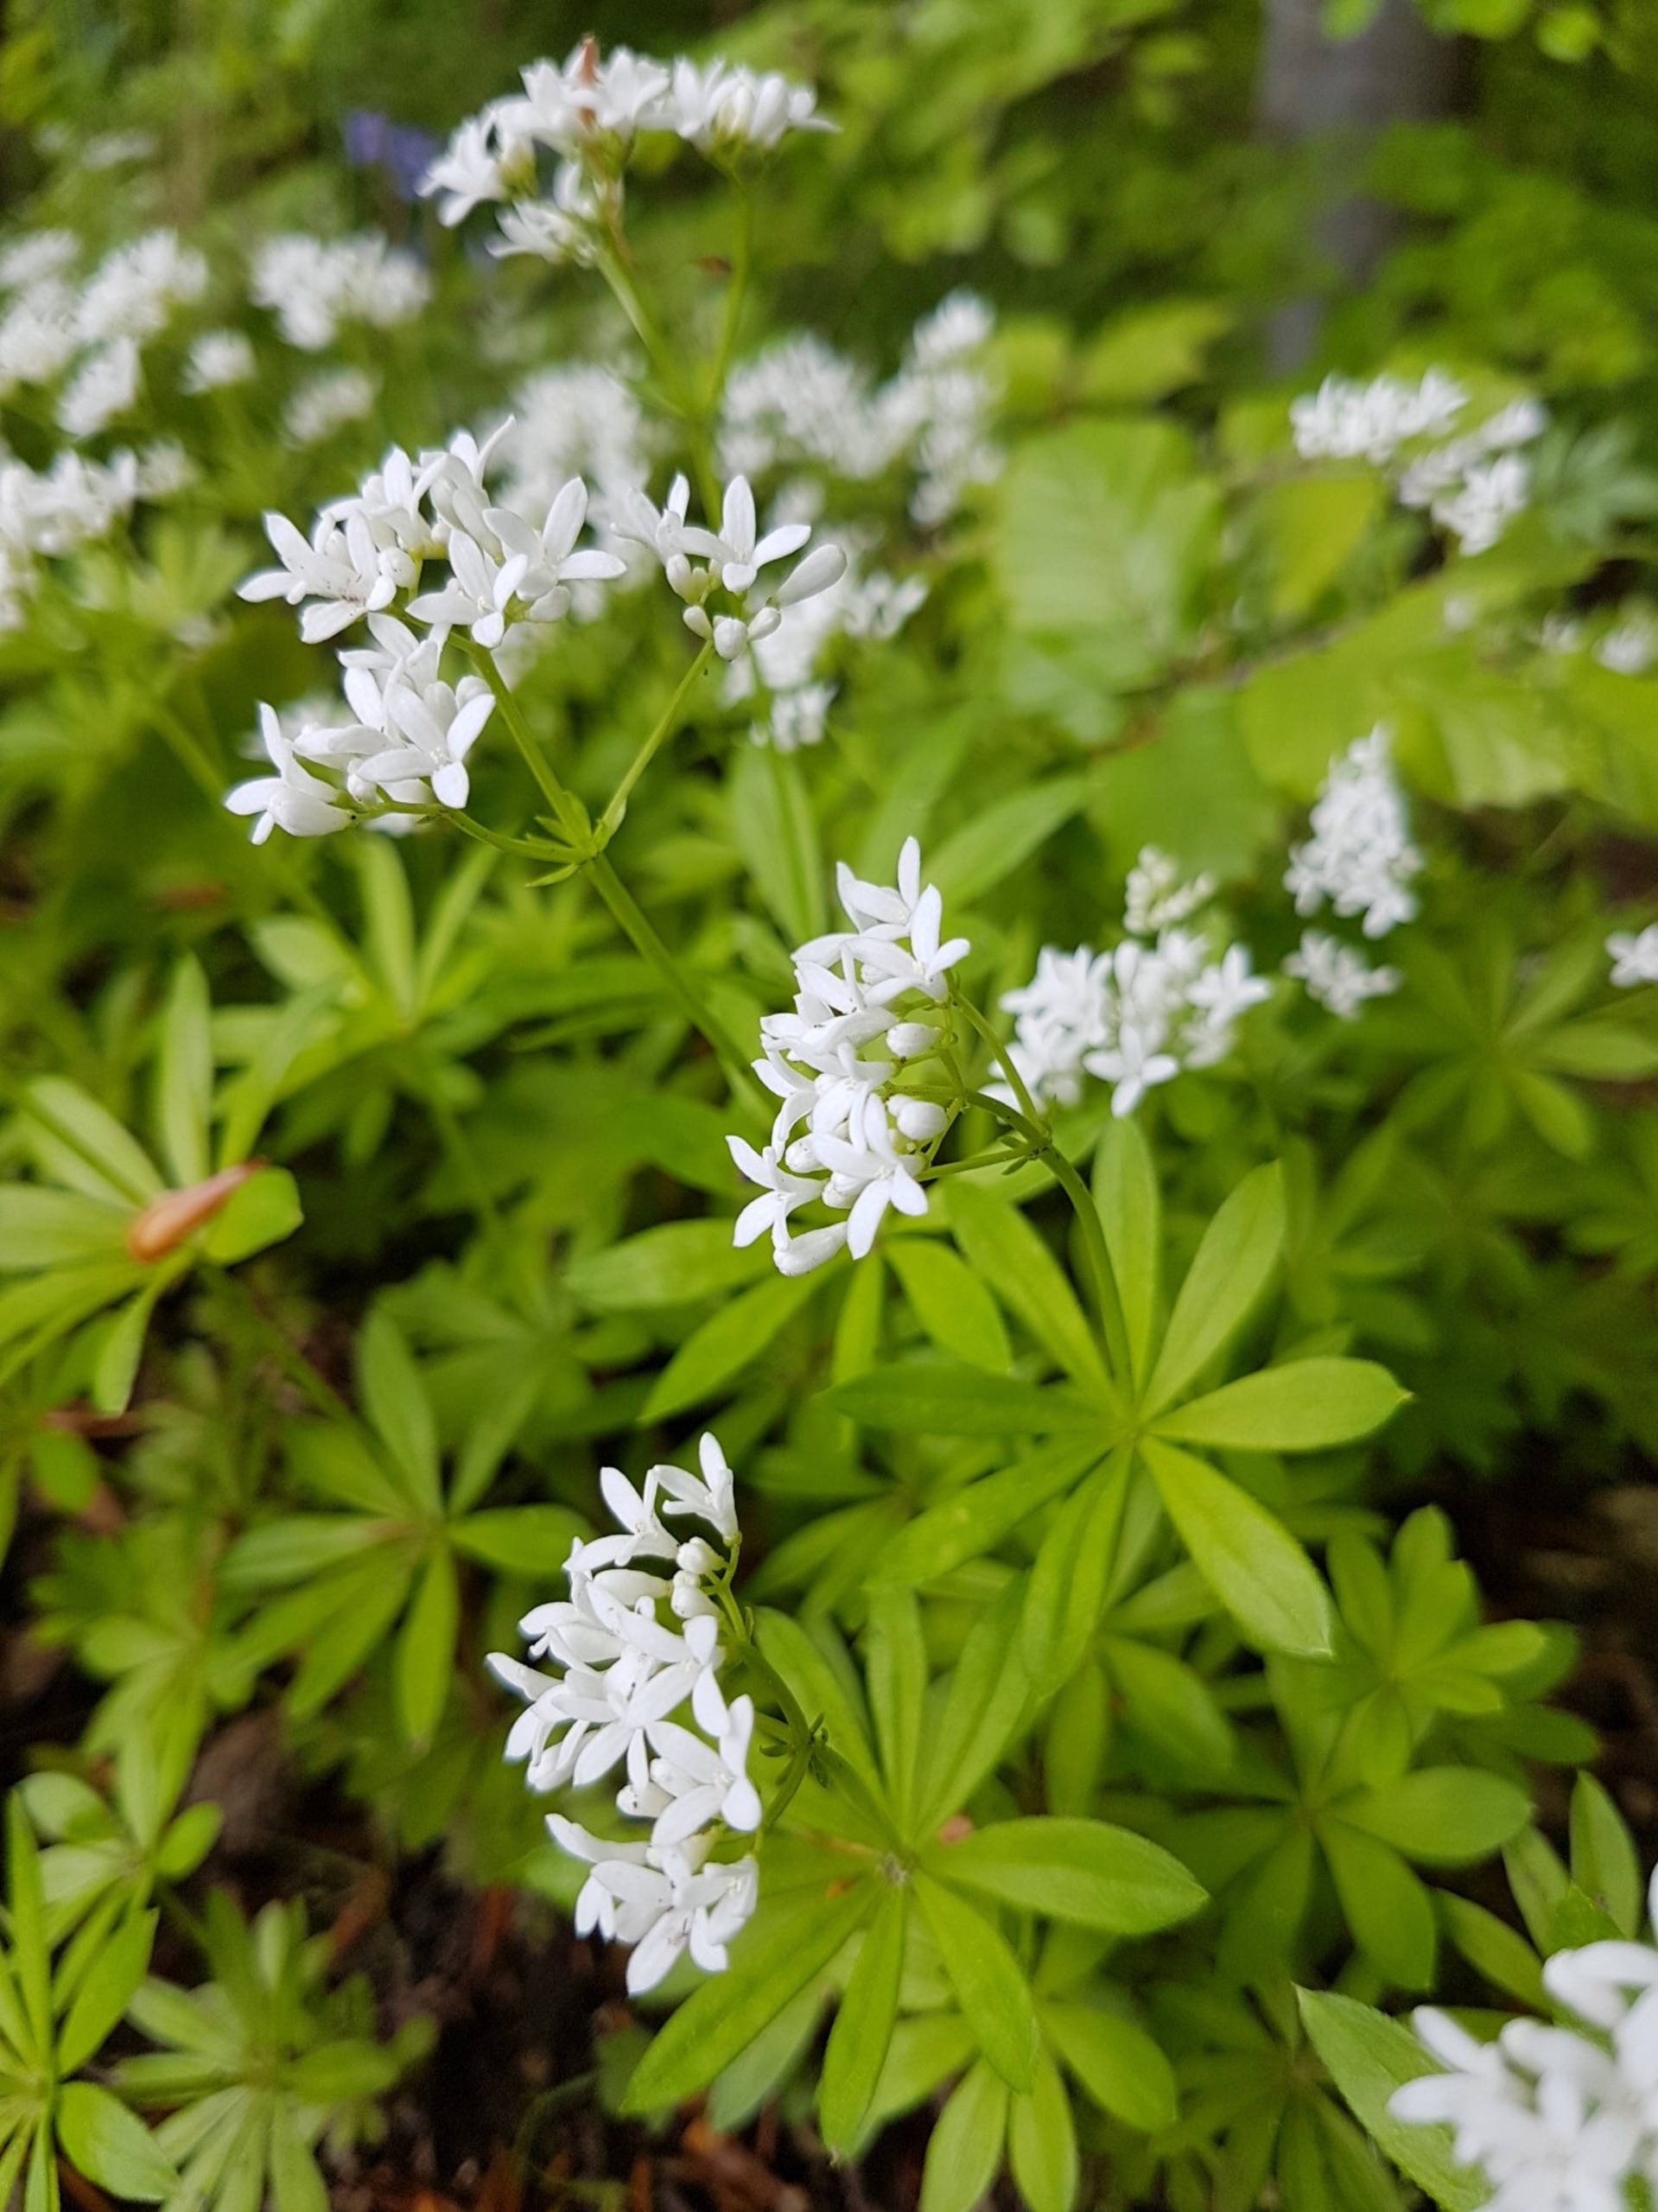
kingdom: Plantae
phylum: Tracheophyta
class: Magnoliopsida
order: Gentianales
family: Rubiaceae
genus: Galium
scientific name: Galium odoratum
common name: Skovmærke
